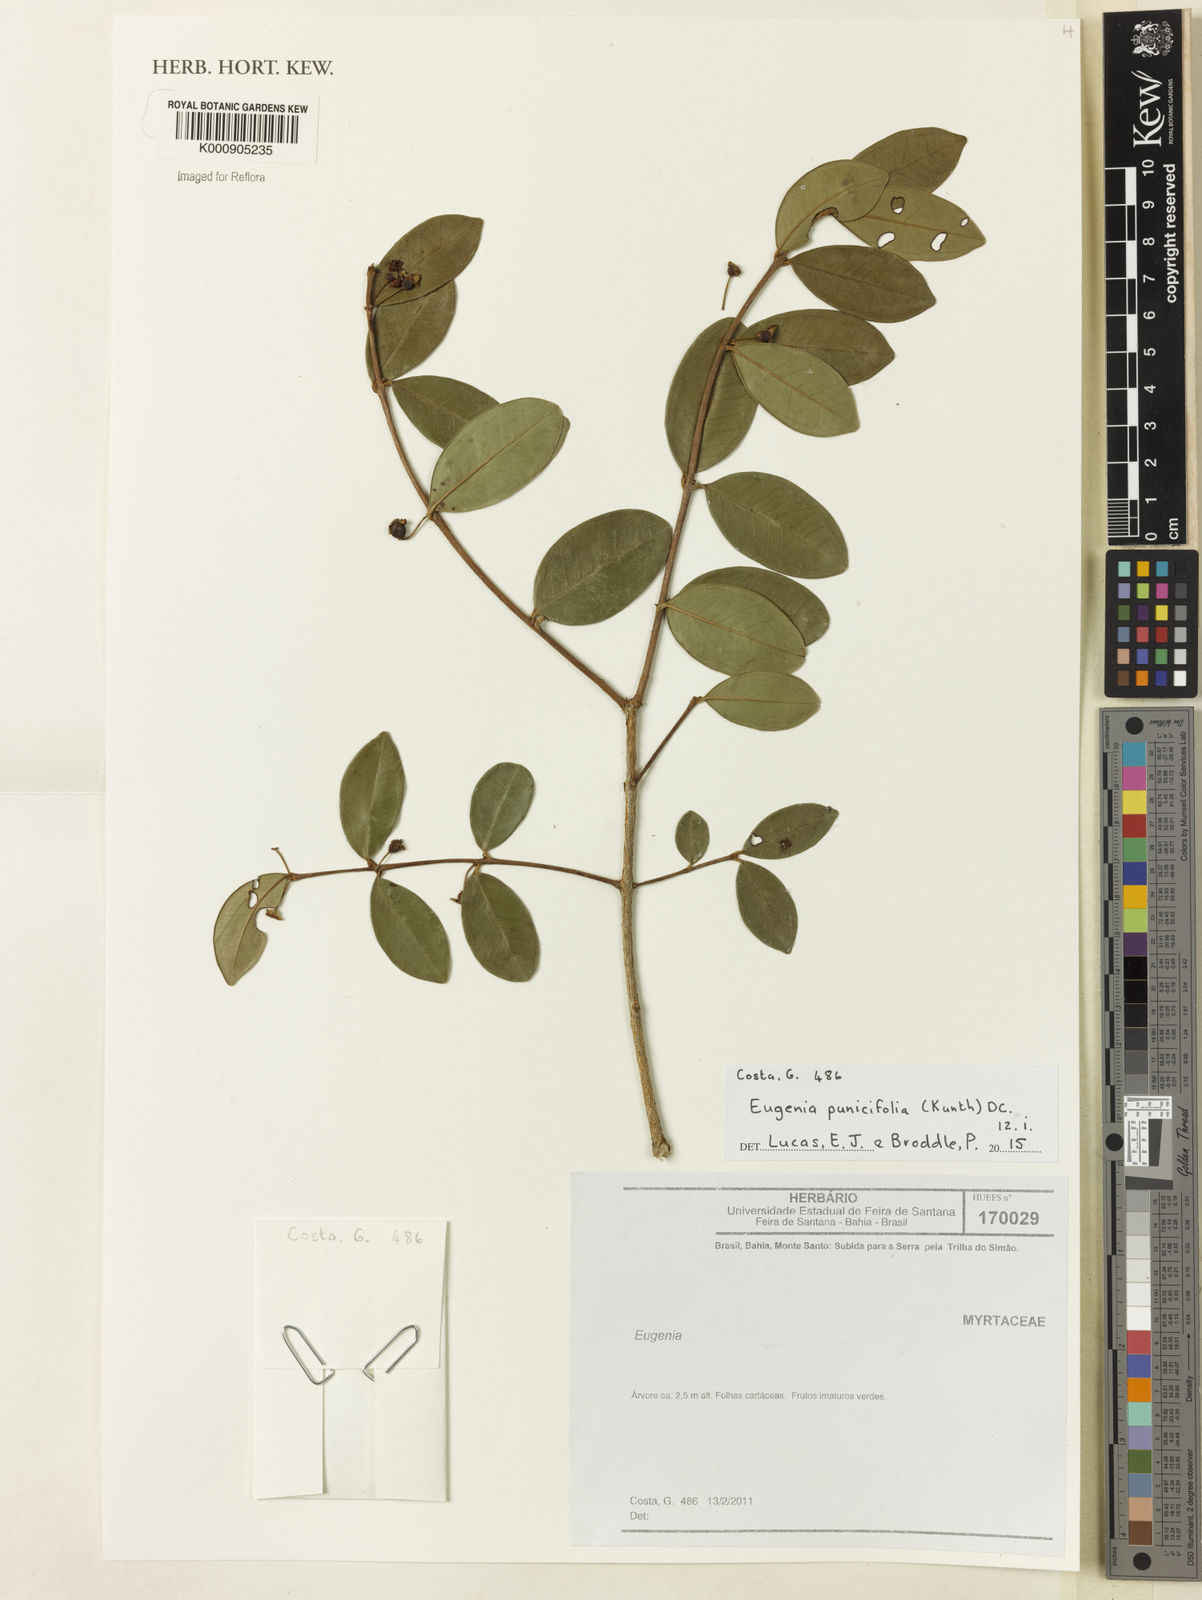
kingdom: Plantae
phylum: Tracheophyta
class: Magnoliopsida
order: Myrtales
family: Myrtaceae
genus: Eugenia
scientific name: Eugenia punicifolia
